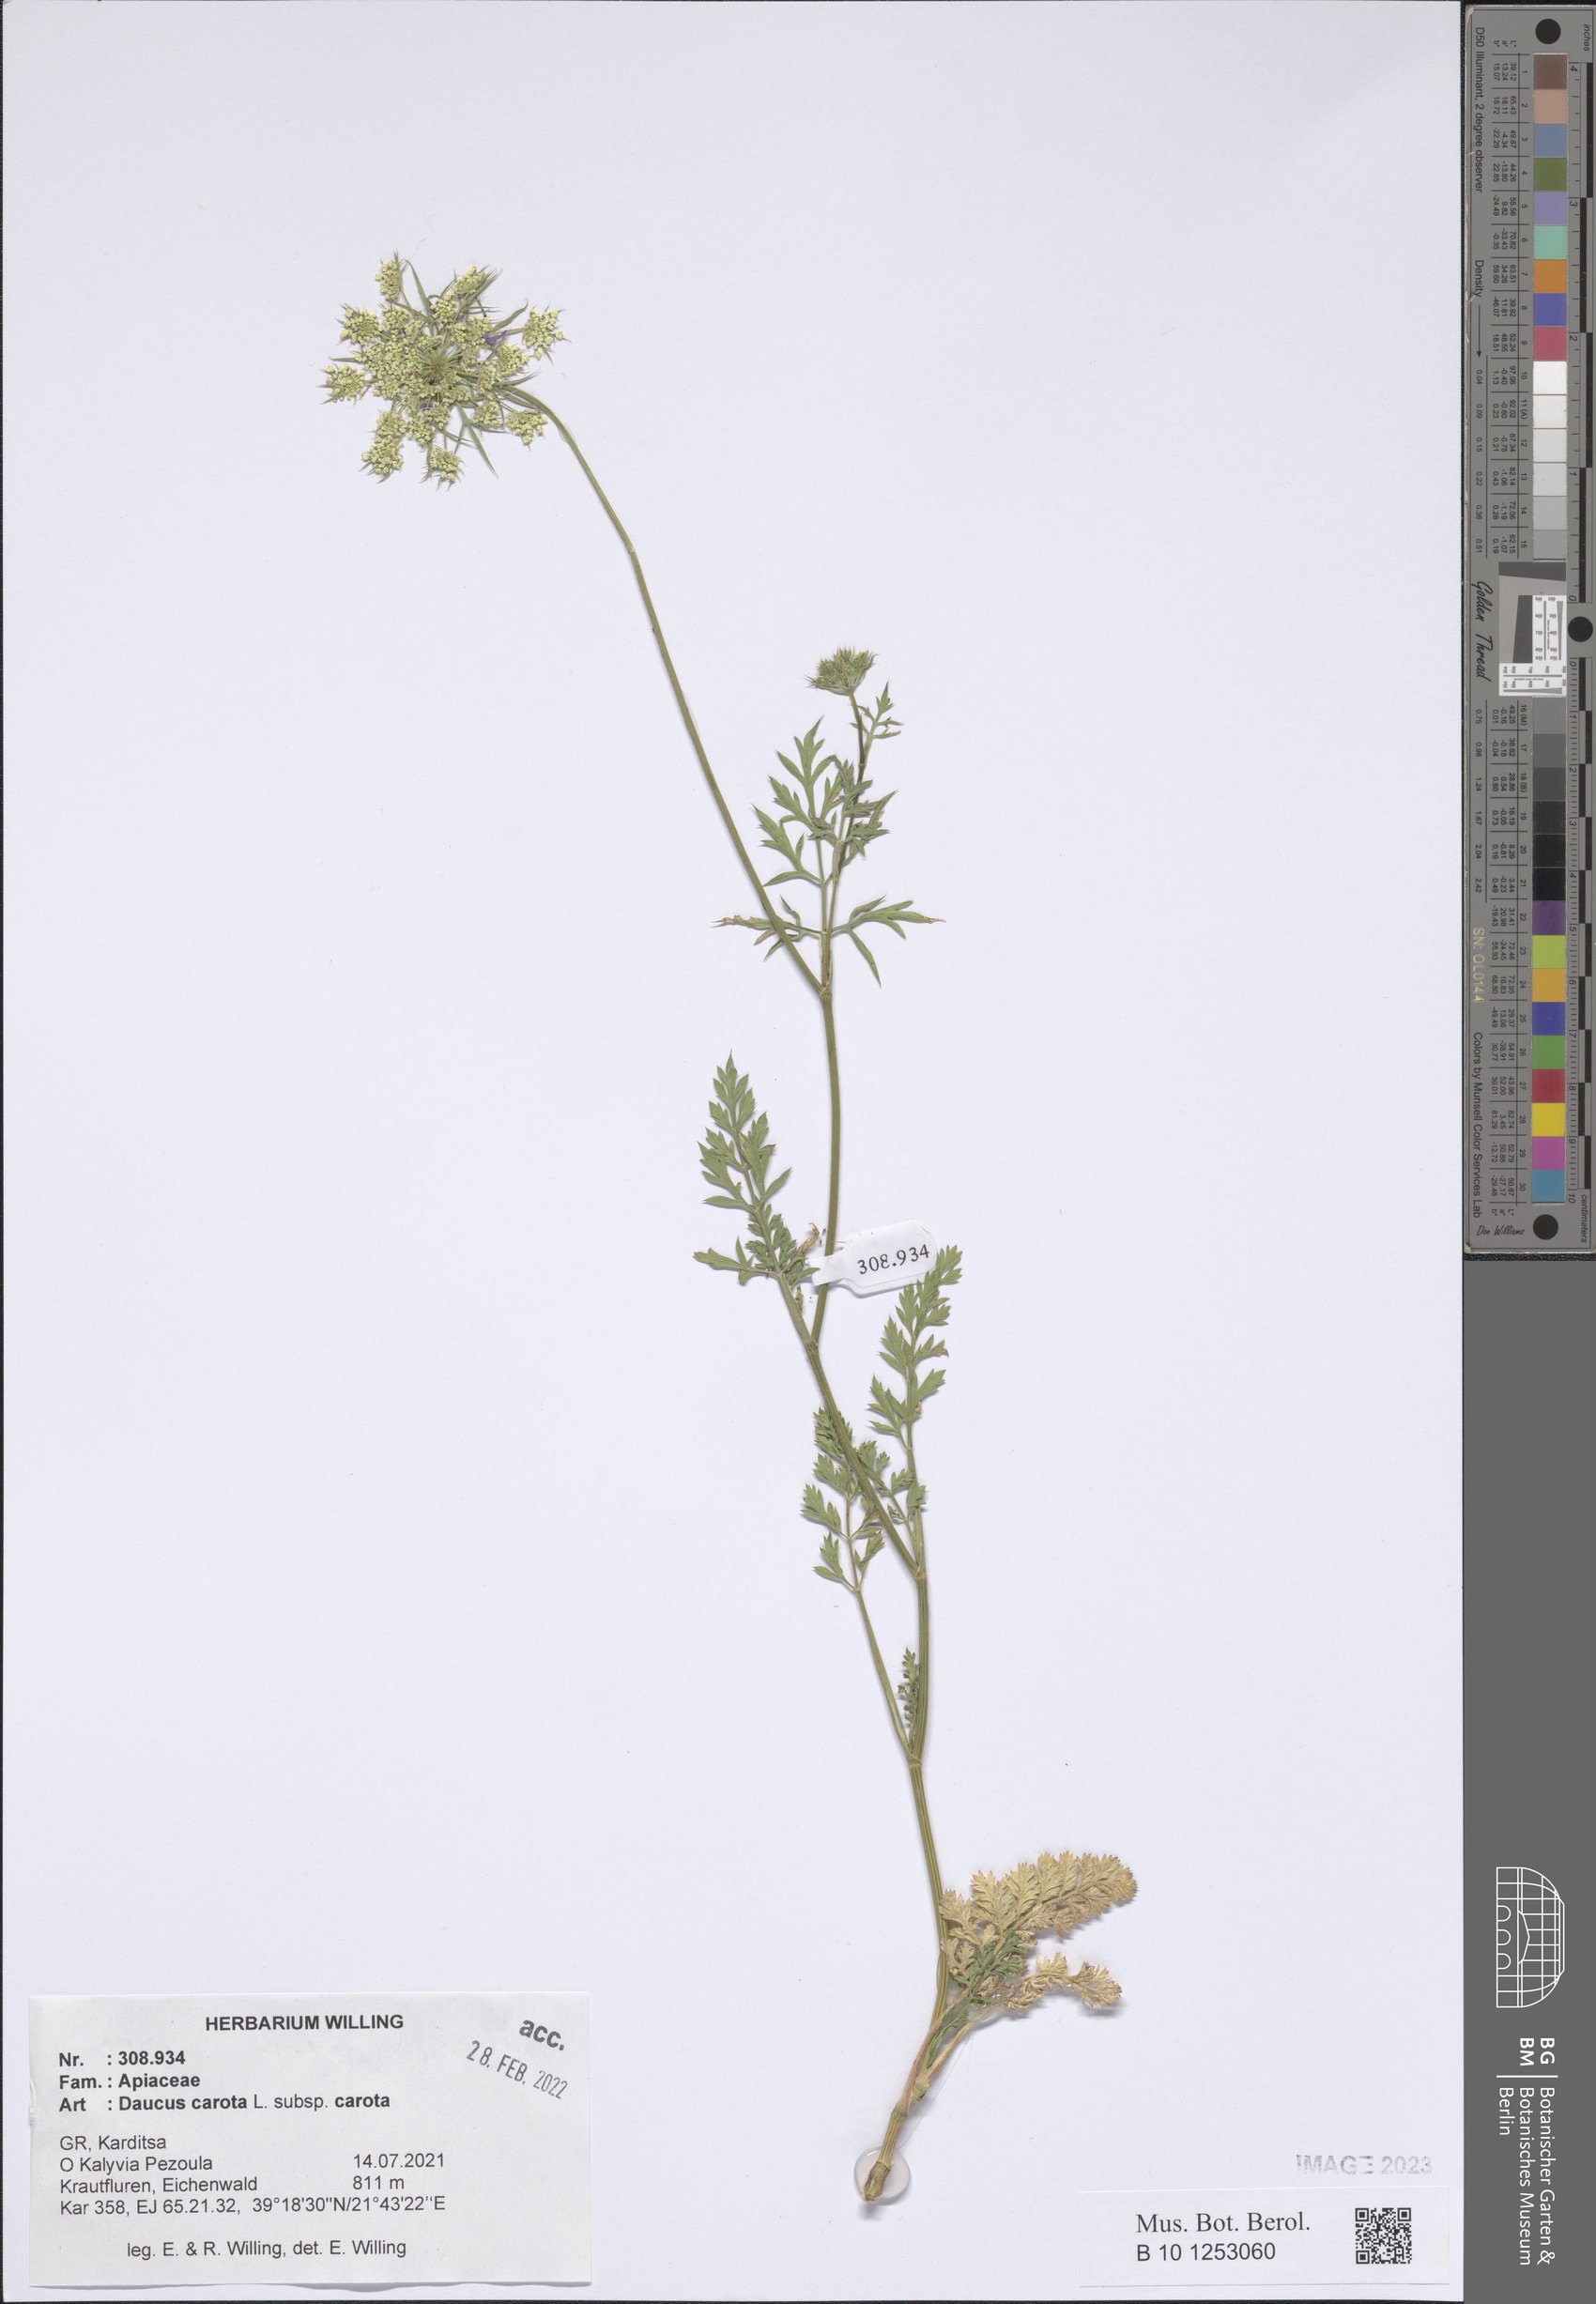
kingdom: Plantae
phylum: Tracheophyta
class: Magnoliopsida
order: Apiales
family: Apiaceae
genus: Daucus
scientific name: Daucus carota
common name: Wild carrot
